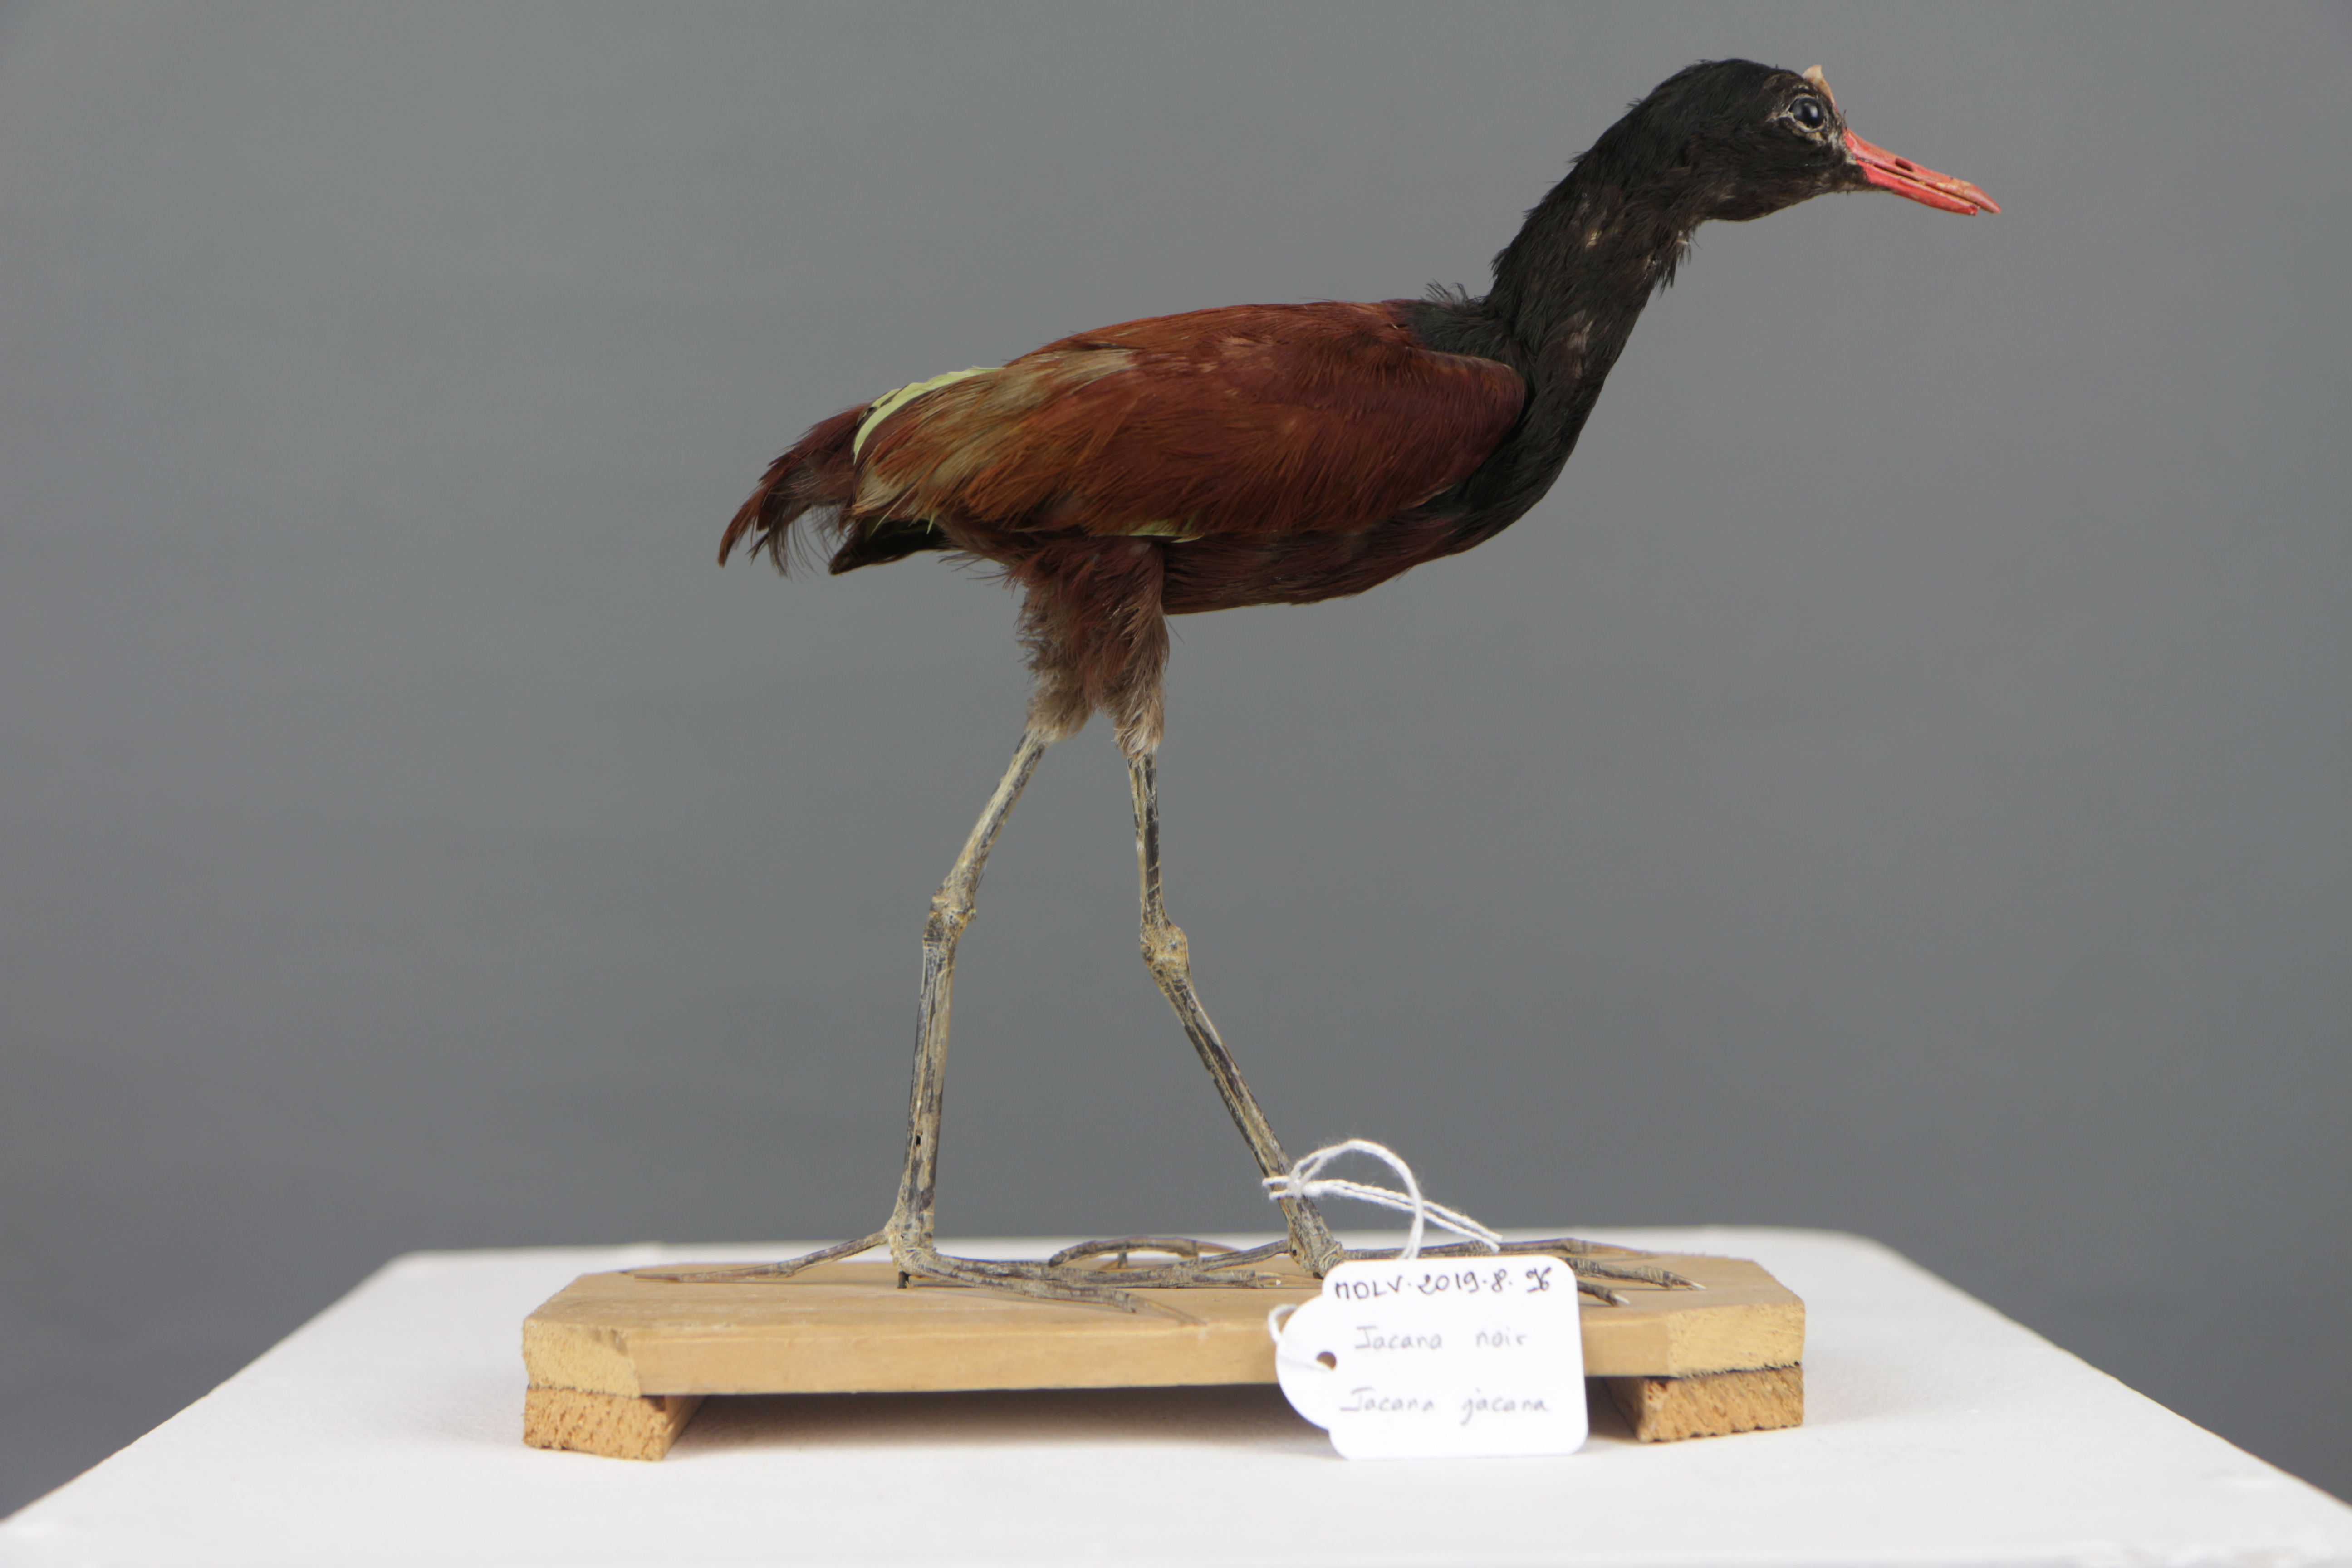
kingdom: Animalia
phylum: Chordata
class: Aves
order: Charadriiformes
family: Jacanidae
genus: Jacana
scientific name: Jacana jacana
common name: Wattled jacana
